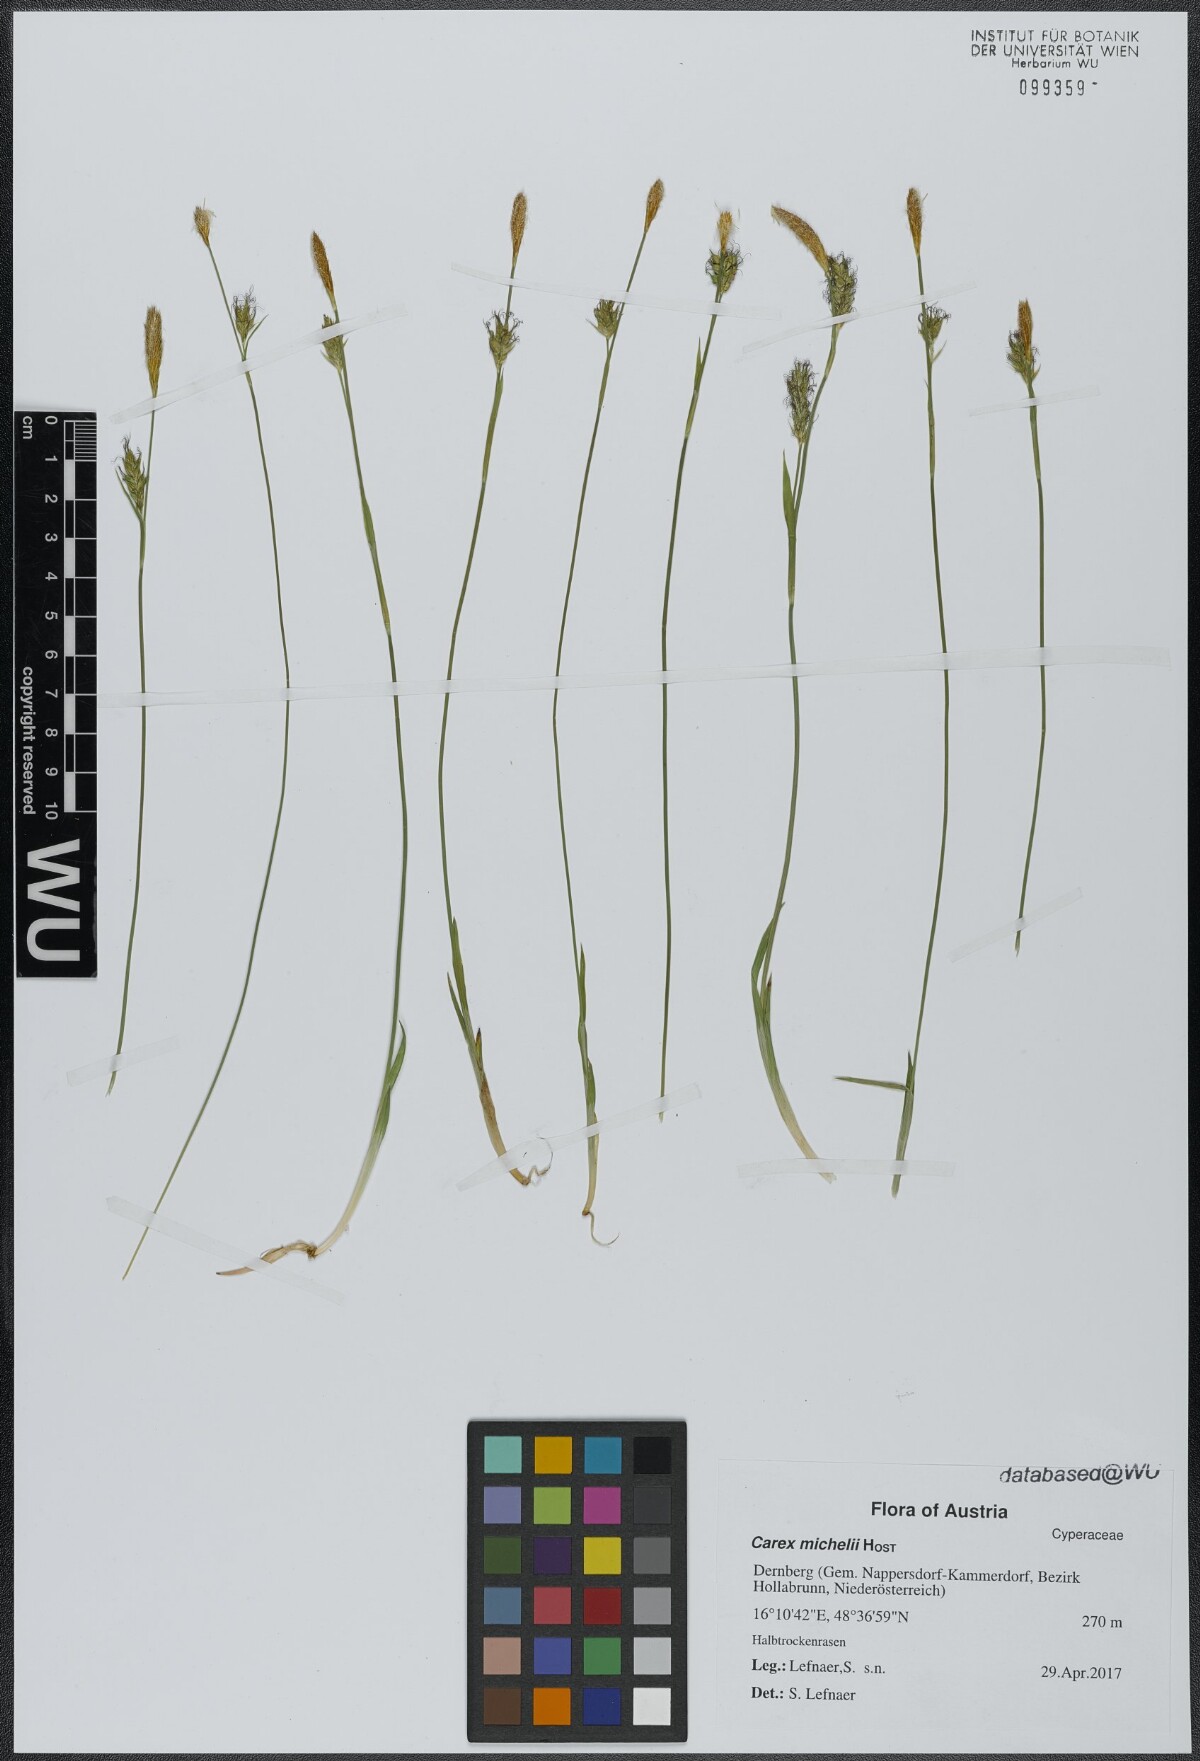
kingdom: Plantae
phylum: Tracheophyta
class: Liliopsida
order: Poales
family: Cyperaceae
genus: Carex
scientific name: Carex michelii
